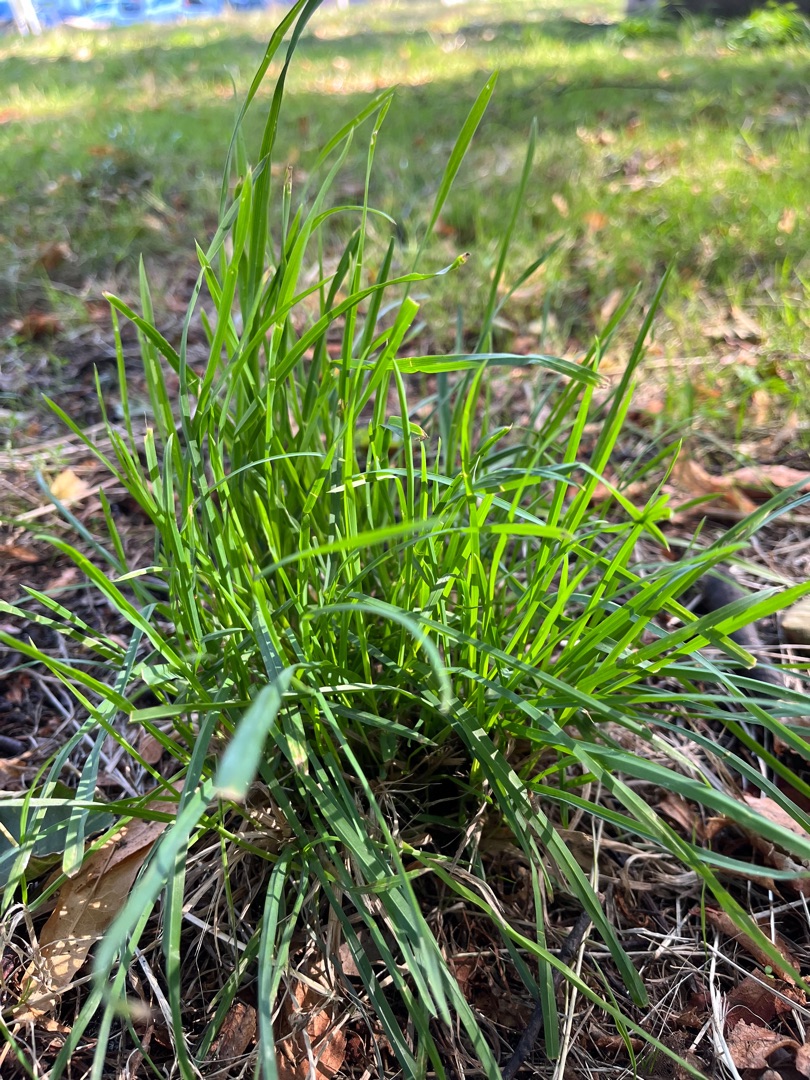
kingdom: Plantae
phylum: Tracheophyta
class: Liliopsida
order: Poales
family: Poaceae
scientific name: Poaceae
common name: Græsfamilien
